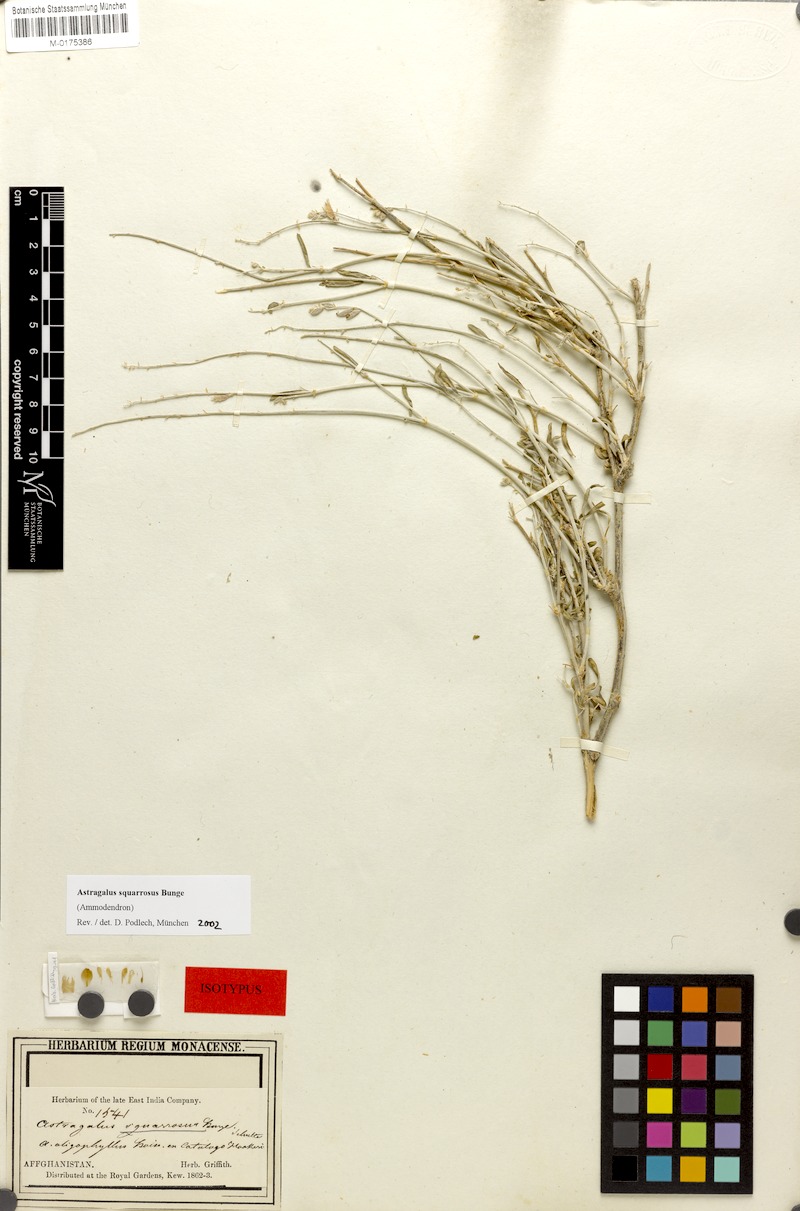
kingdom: Plantae
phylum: Tracheophyta
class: Magnoliopsida
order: Fabales
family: Fabaceae
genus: Astragalus
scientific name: Astragalus squarrosus
